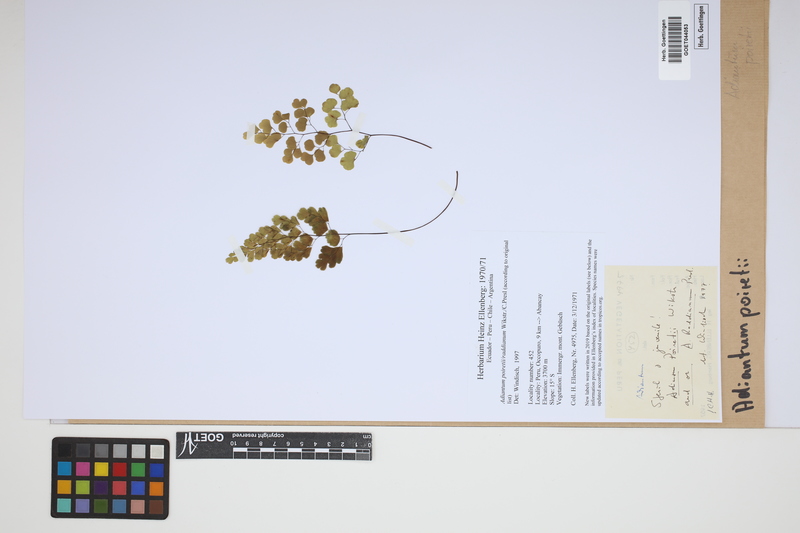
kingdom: Plantae
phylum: Tracheophyta
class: Polypodiopsida
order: Polypodiales
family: Pteridaceae
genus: Adiantum
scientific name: Adiantum poiretii
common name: Mexican maidenhair
